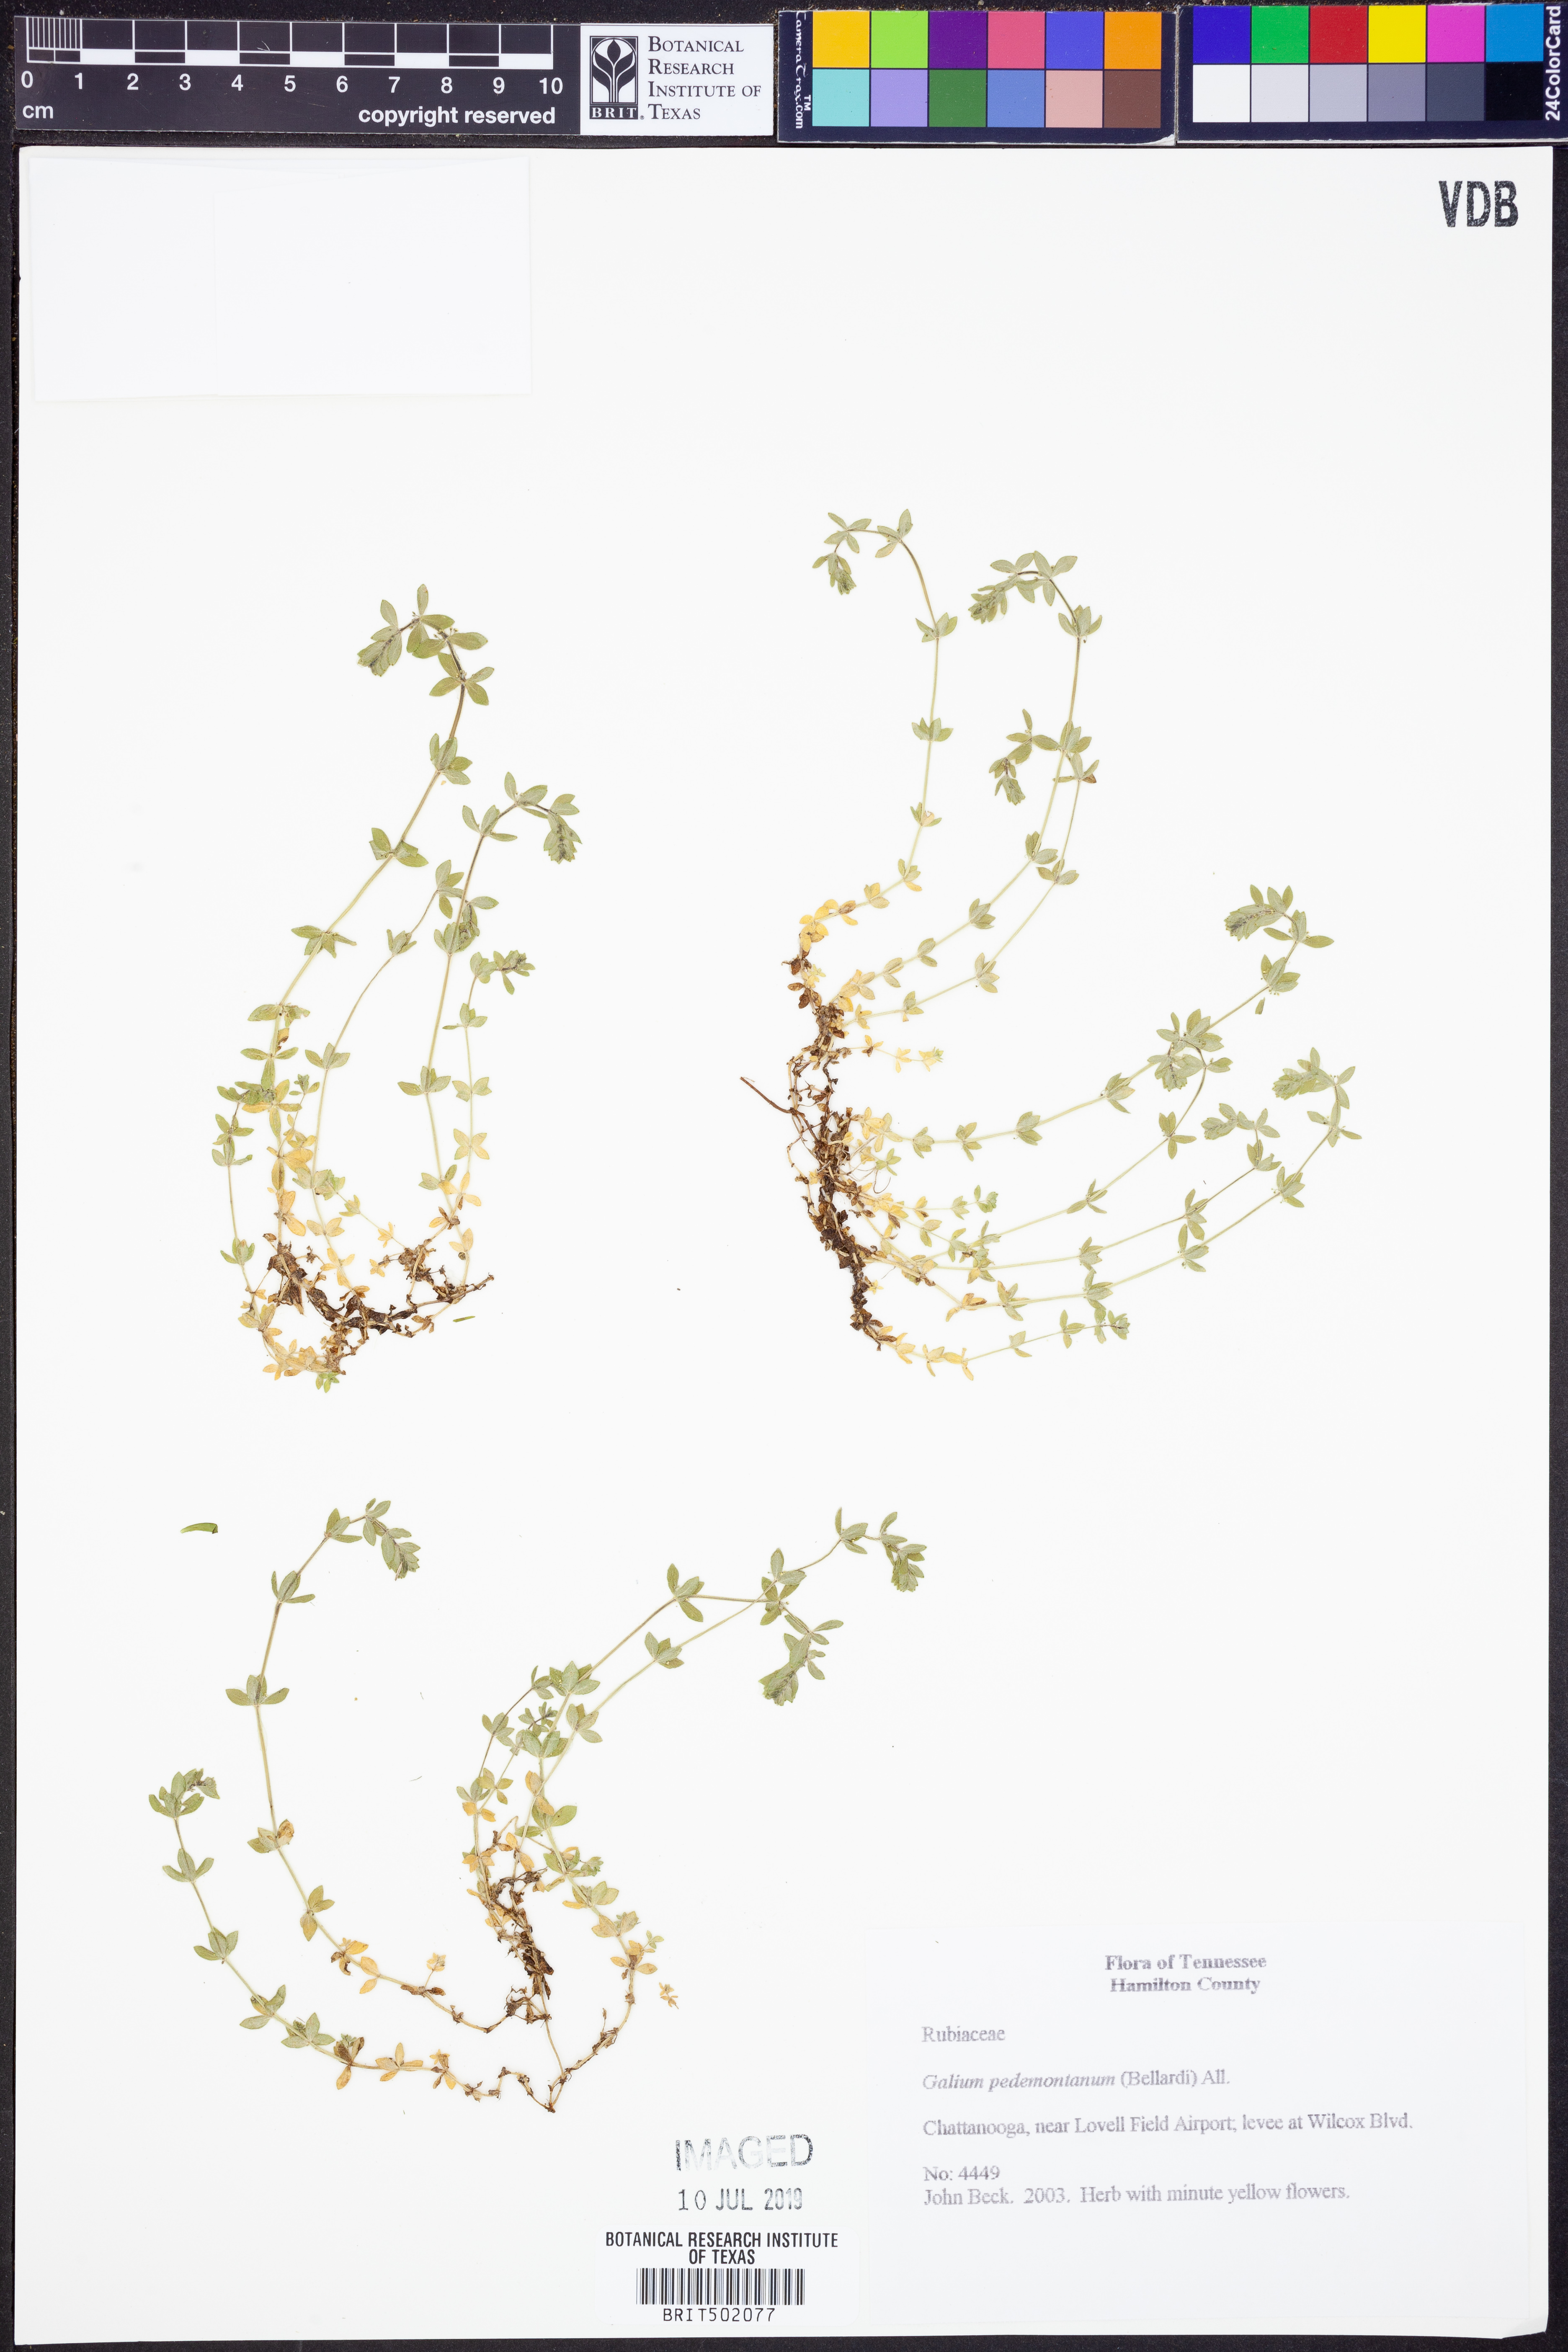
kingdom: Plantae
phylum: Tracheophyta
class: Magnoliopsida
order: Gentianales
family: Rubiaceae
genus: Cruciata
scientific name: Cruciata pedemontana
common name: Piedmont bedstraw
